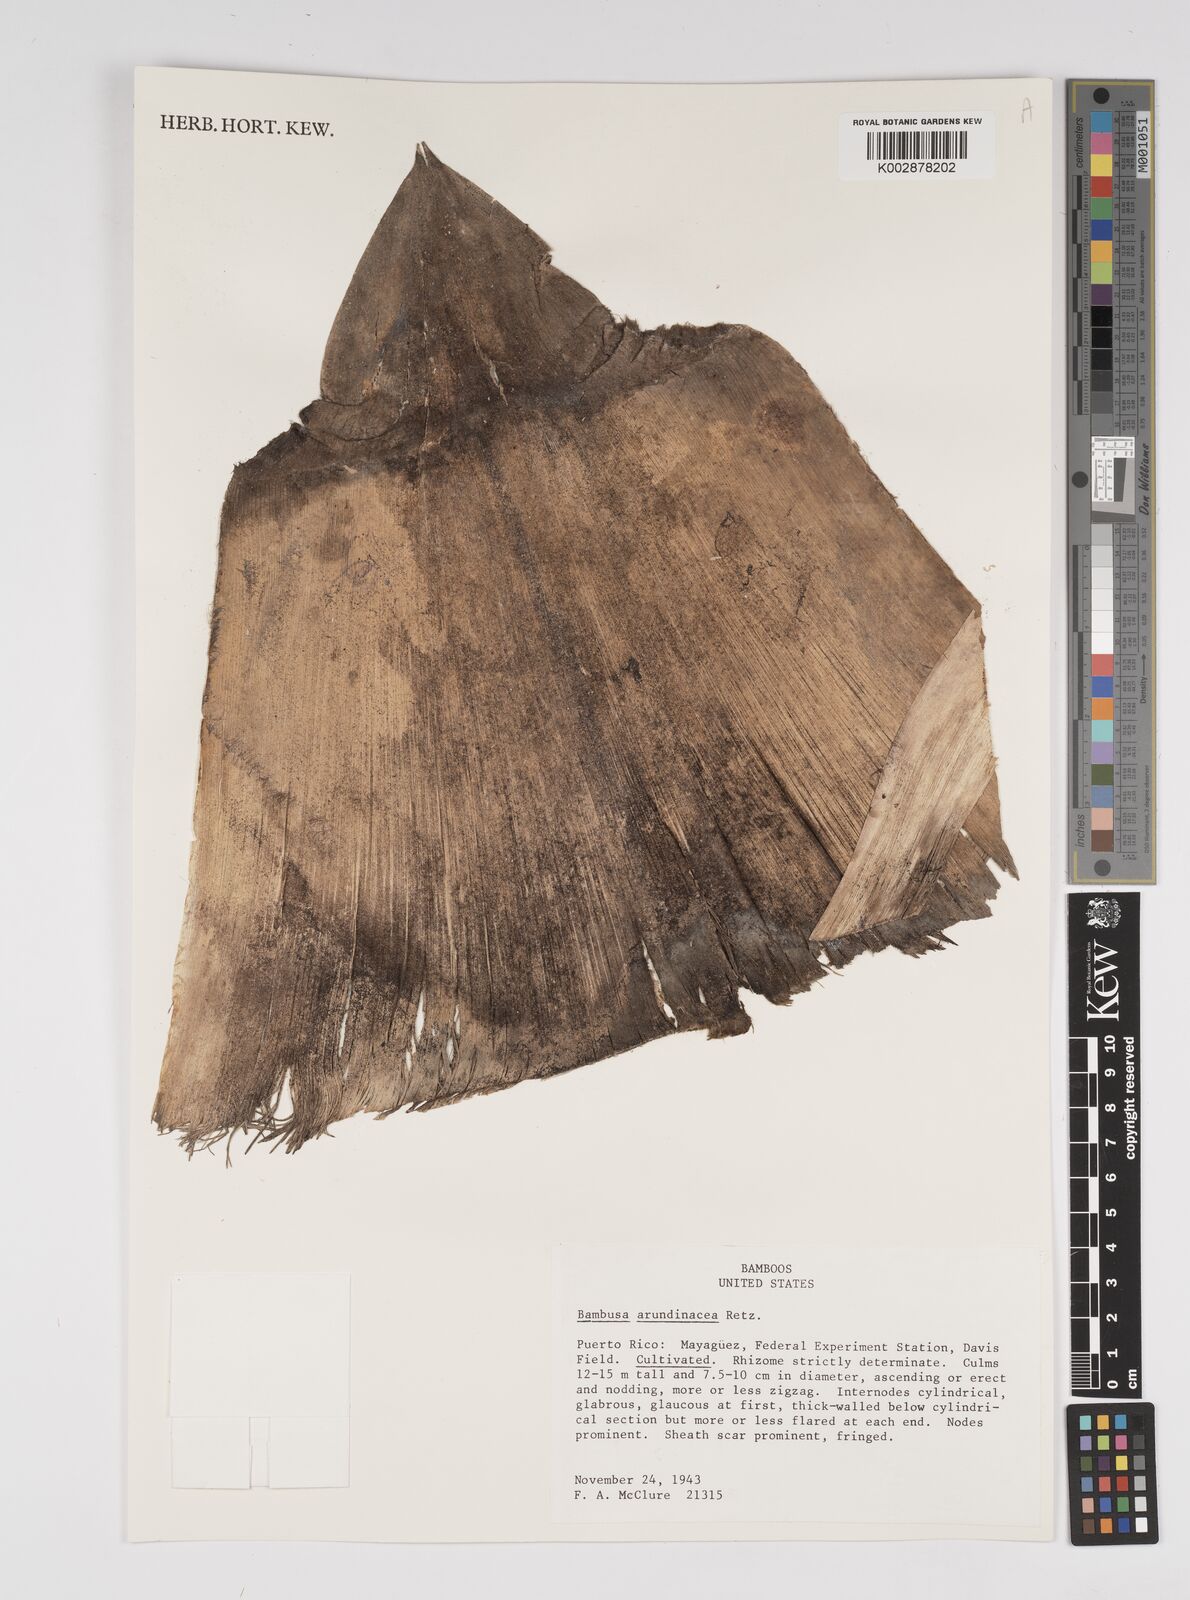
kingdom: Plantae
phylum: Tracheophyta
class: Liliopsida
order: Poales
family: Poaceae
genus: Bambusa
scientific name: Bambusa bambos
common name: Indian thorny bamboo
